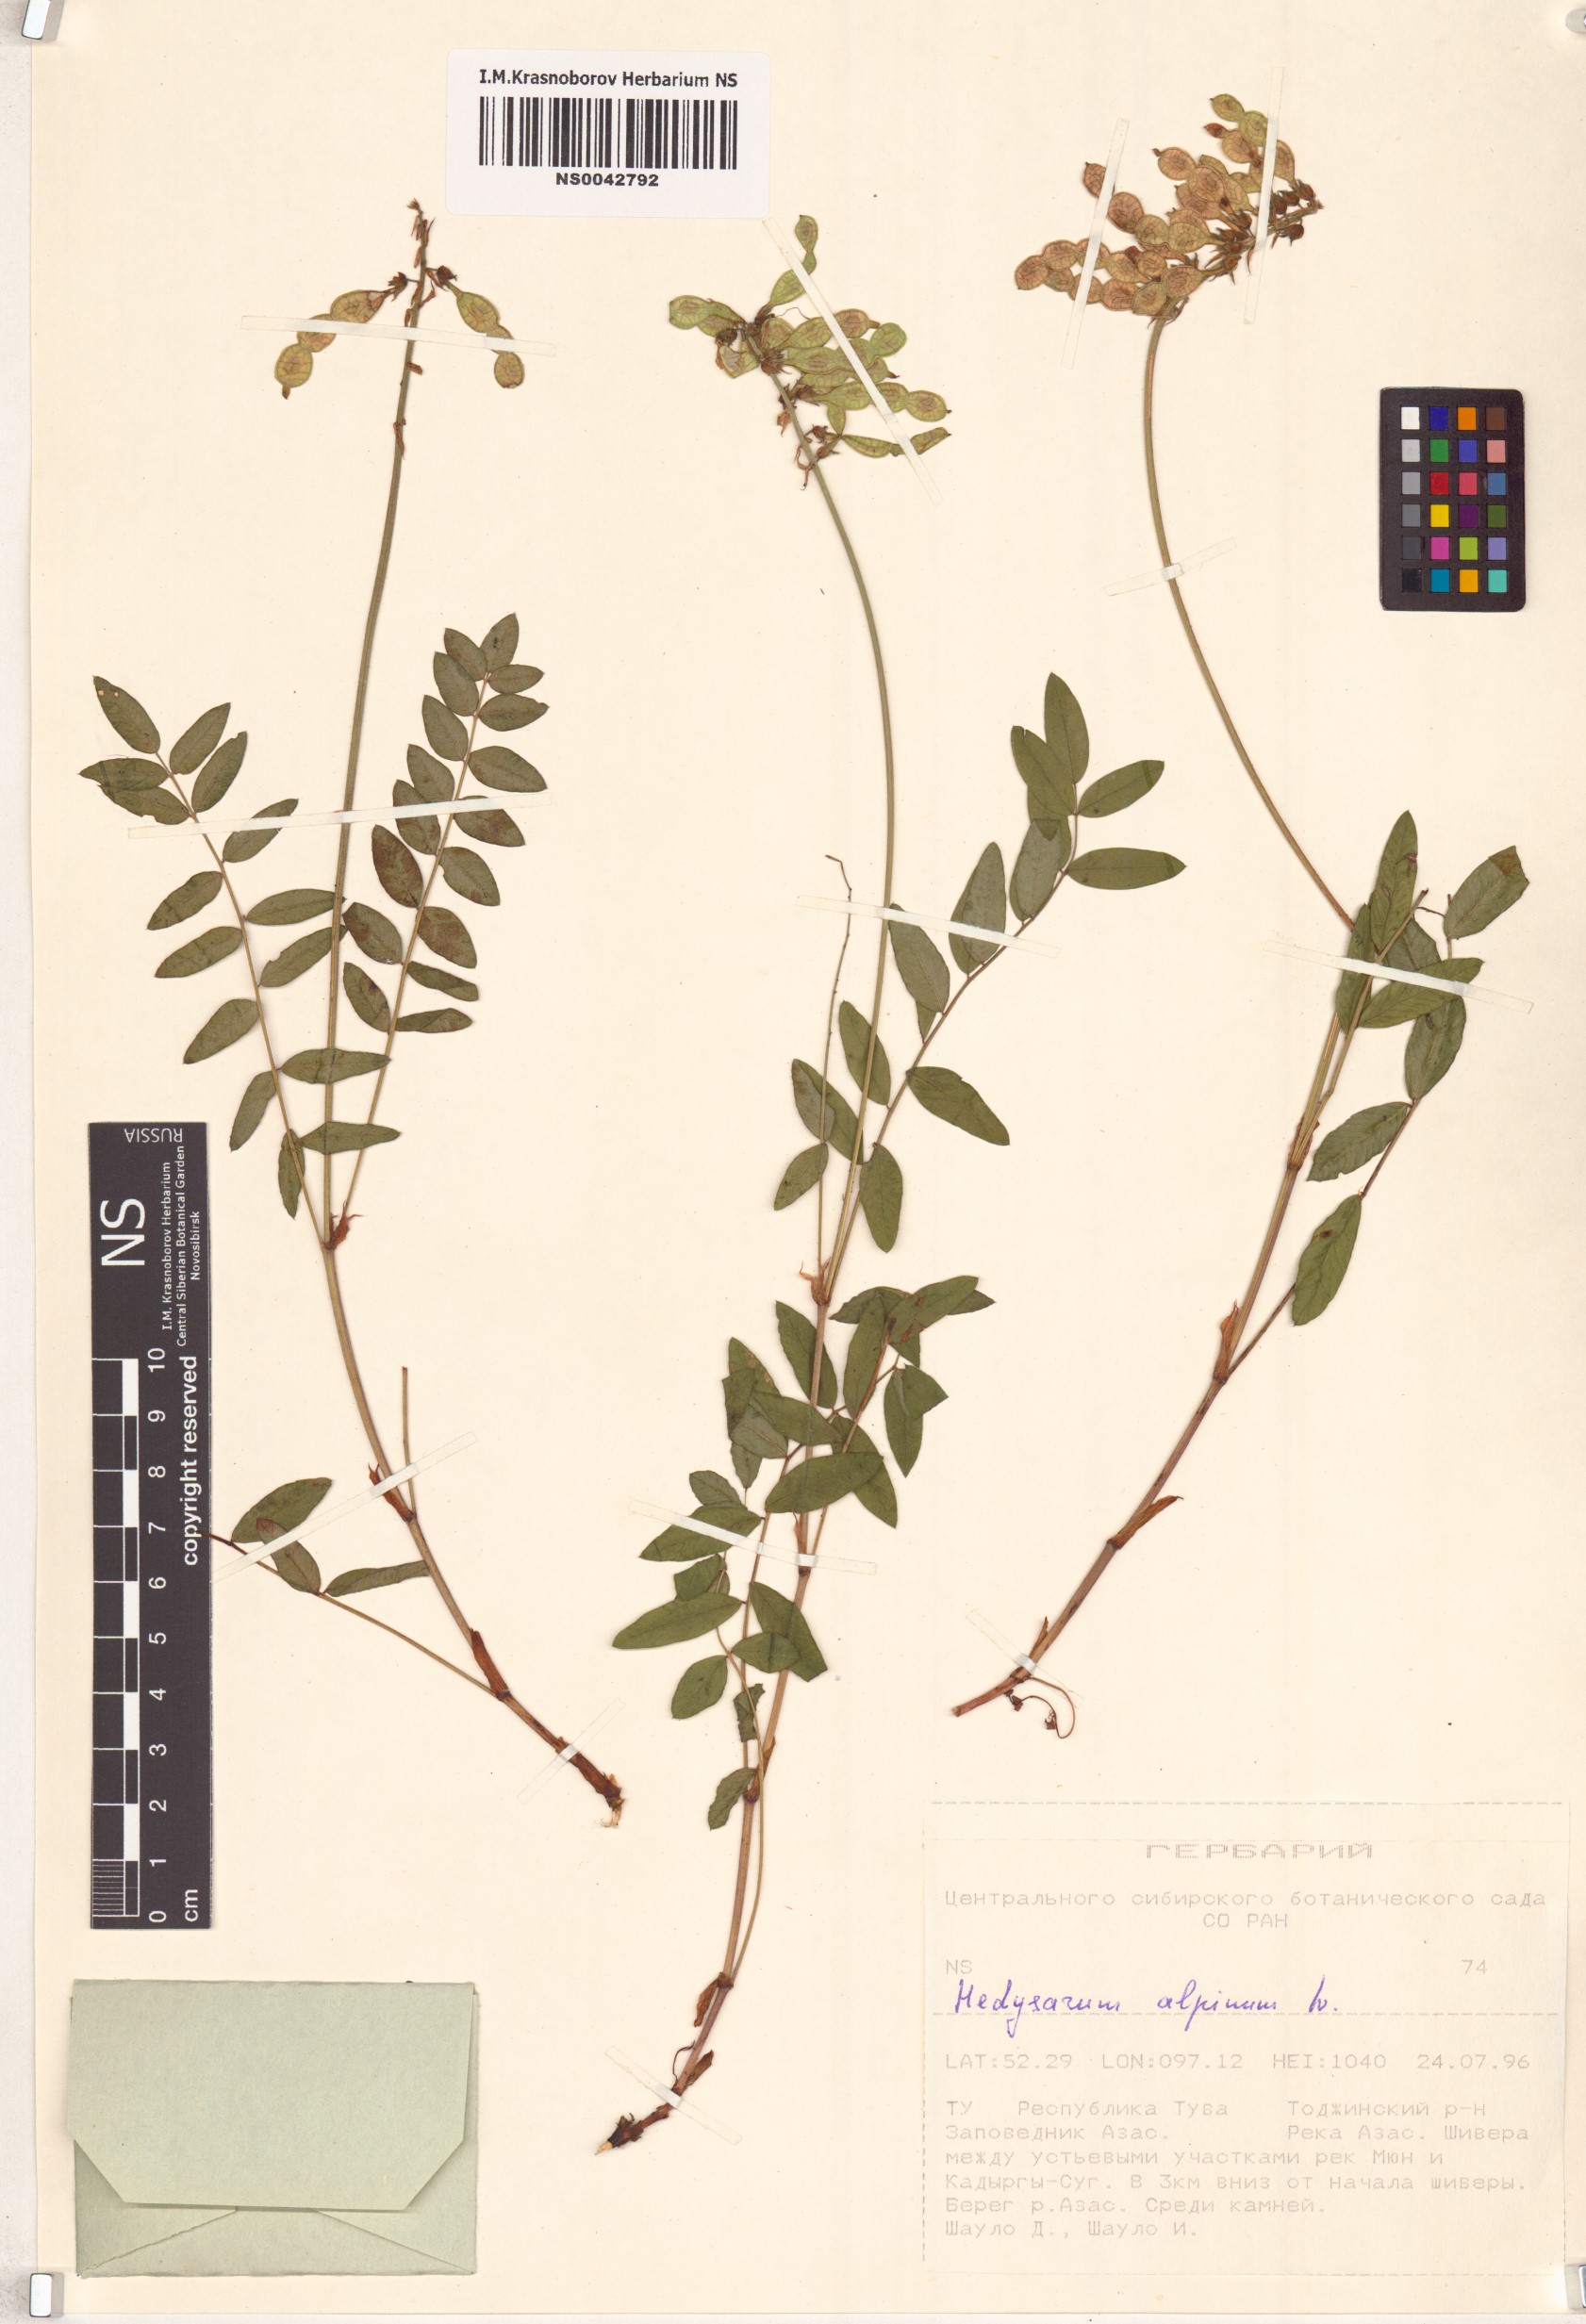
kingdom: Plantae
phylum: Tracheophyta
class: Magnoliopsida
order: Fabales
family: Fabaceae
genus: Hedysarum
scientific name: Hedysarum alpinum
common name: Alpine sweet-vetch
